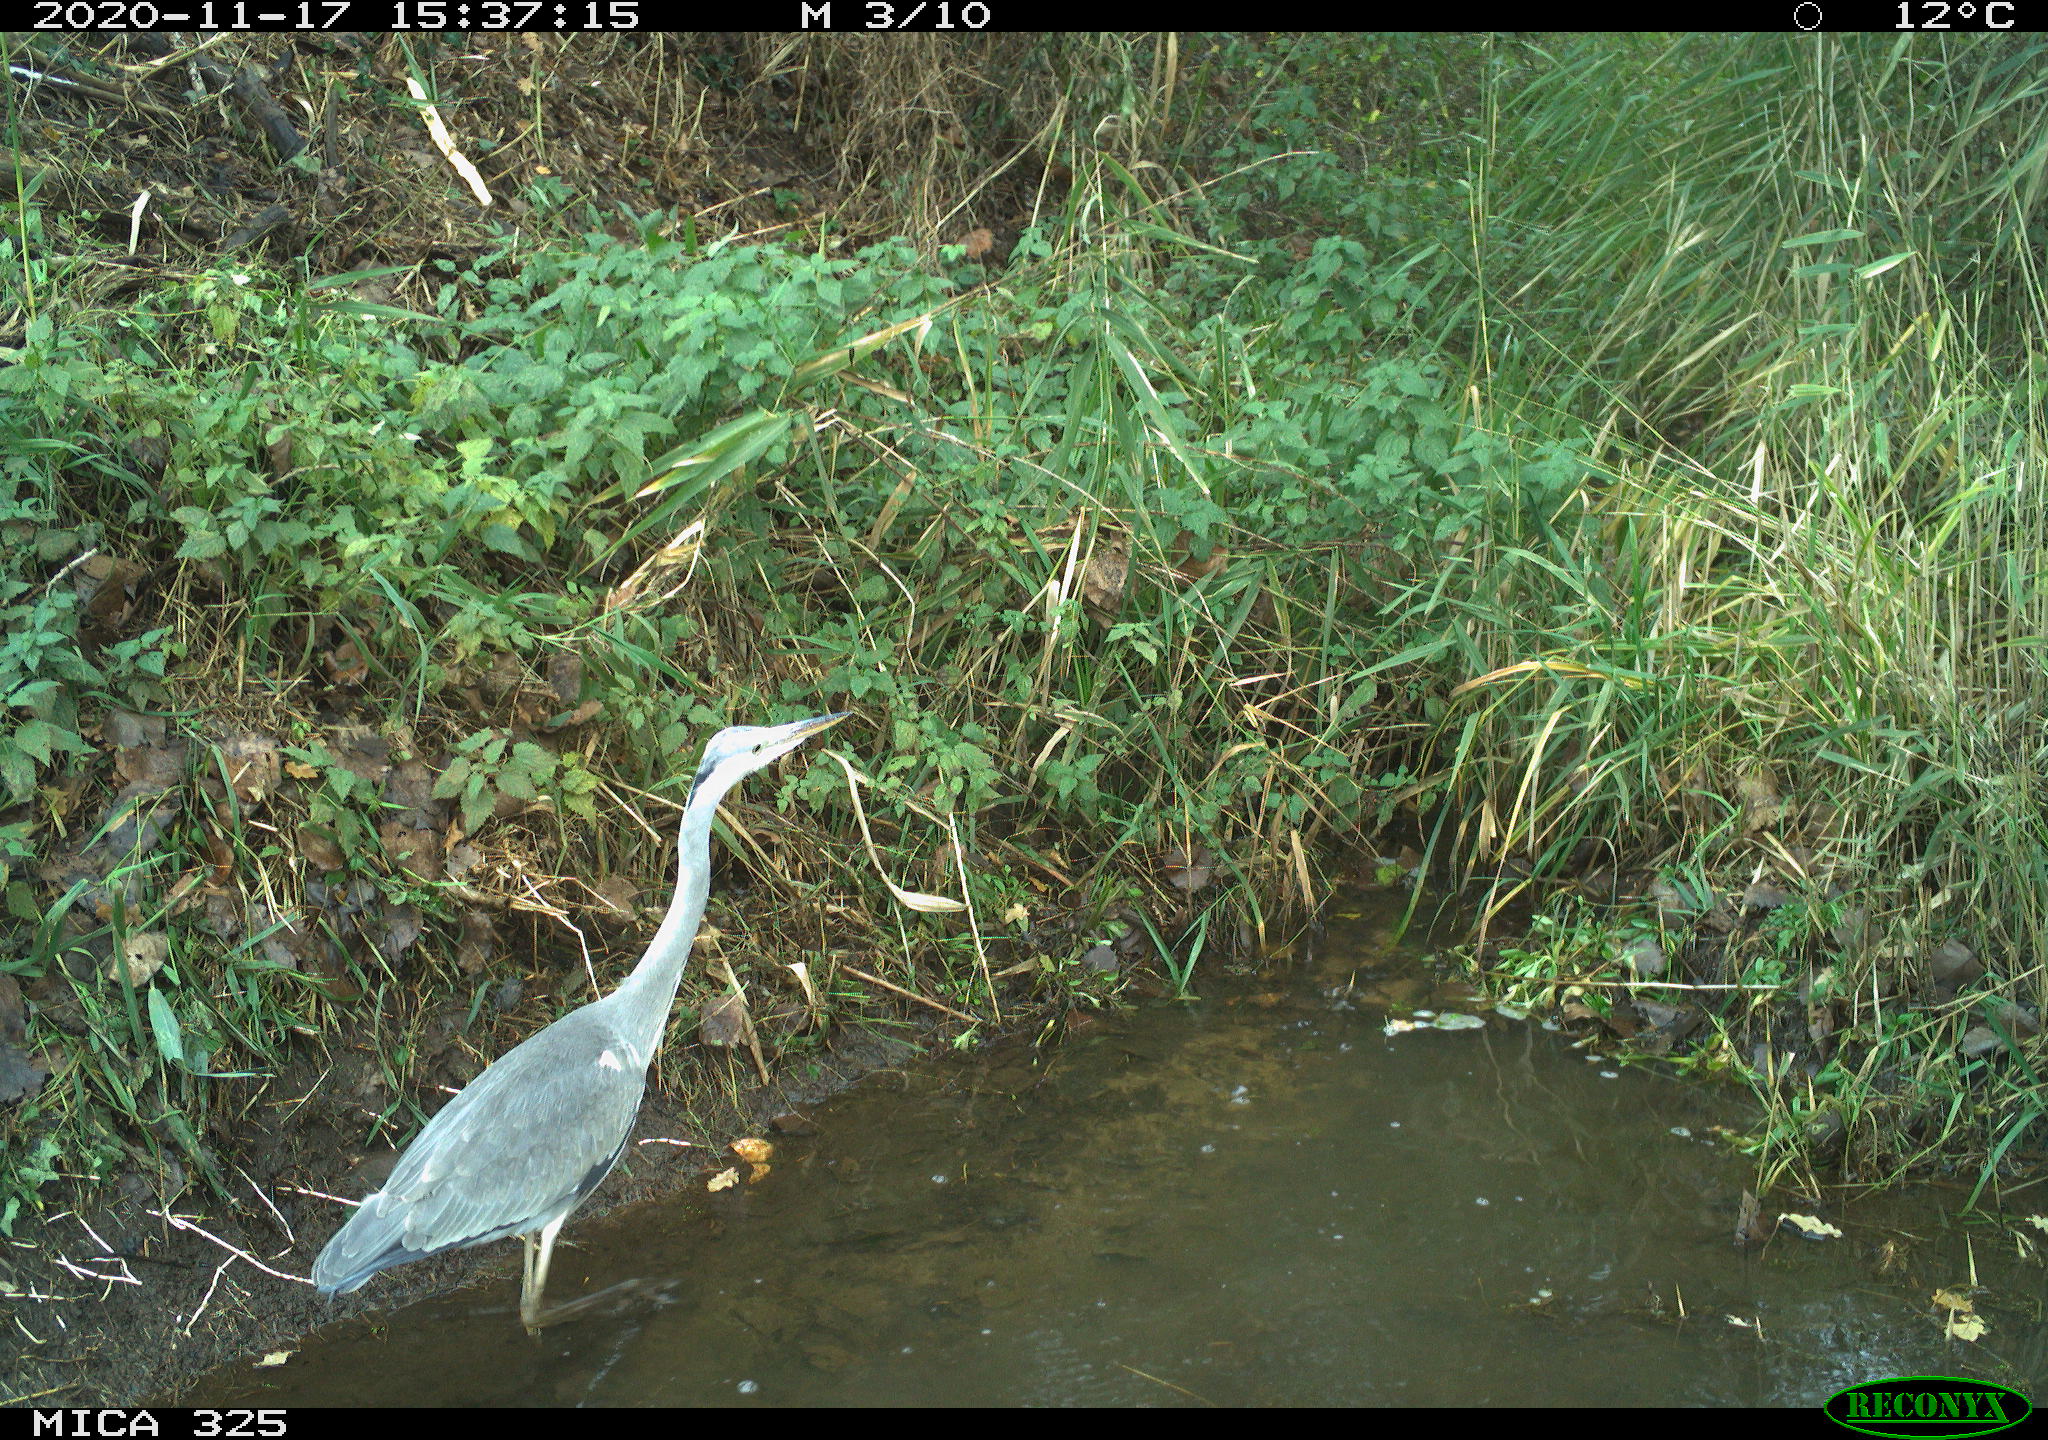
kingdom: Animalia
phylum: Chordata
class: Aves
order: Pelecaniformes
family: Ardeidae
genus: Ardea
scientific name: Ardea cinerea
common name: Grey heron
